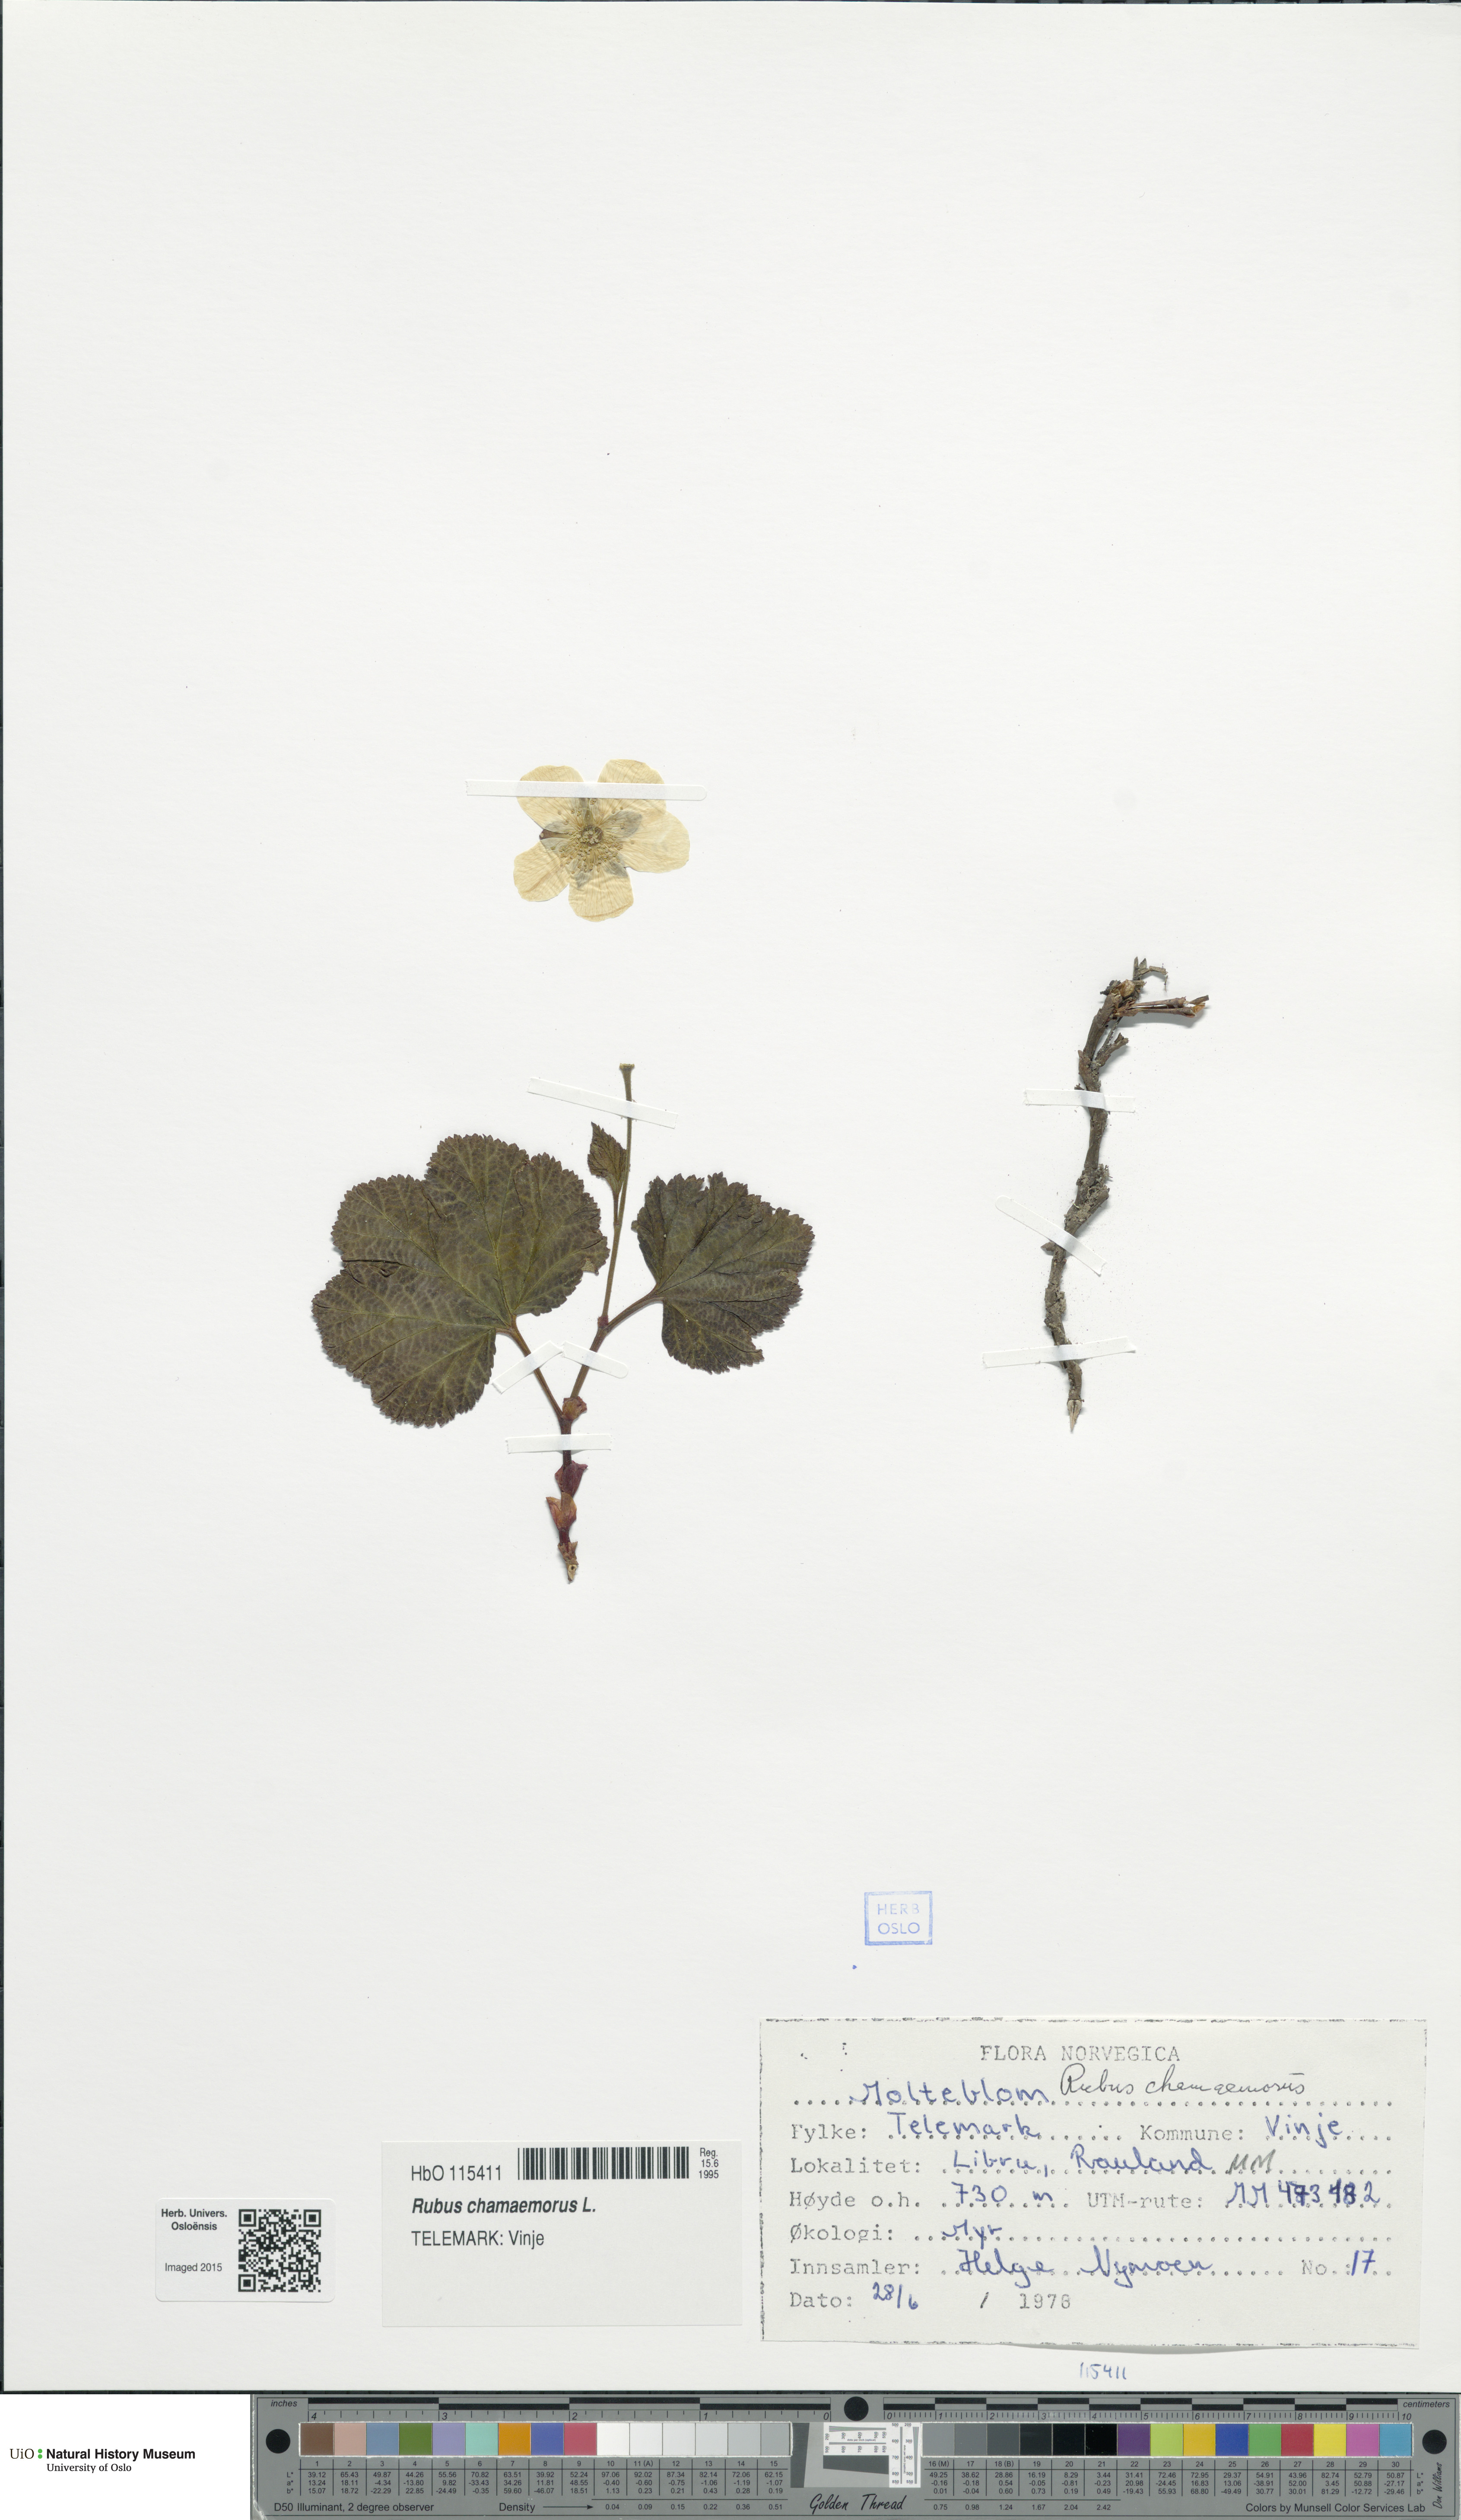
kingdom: Plantae
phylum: Tracheophyta
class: Magnoliopsida
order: Rosales
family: Rosaceae
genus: Rubus
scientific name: Rubus chamaemorus
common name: Cloudberry
